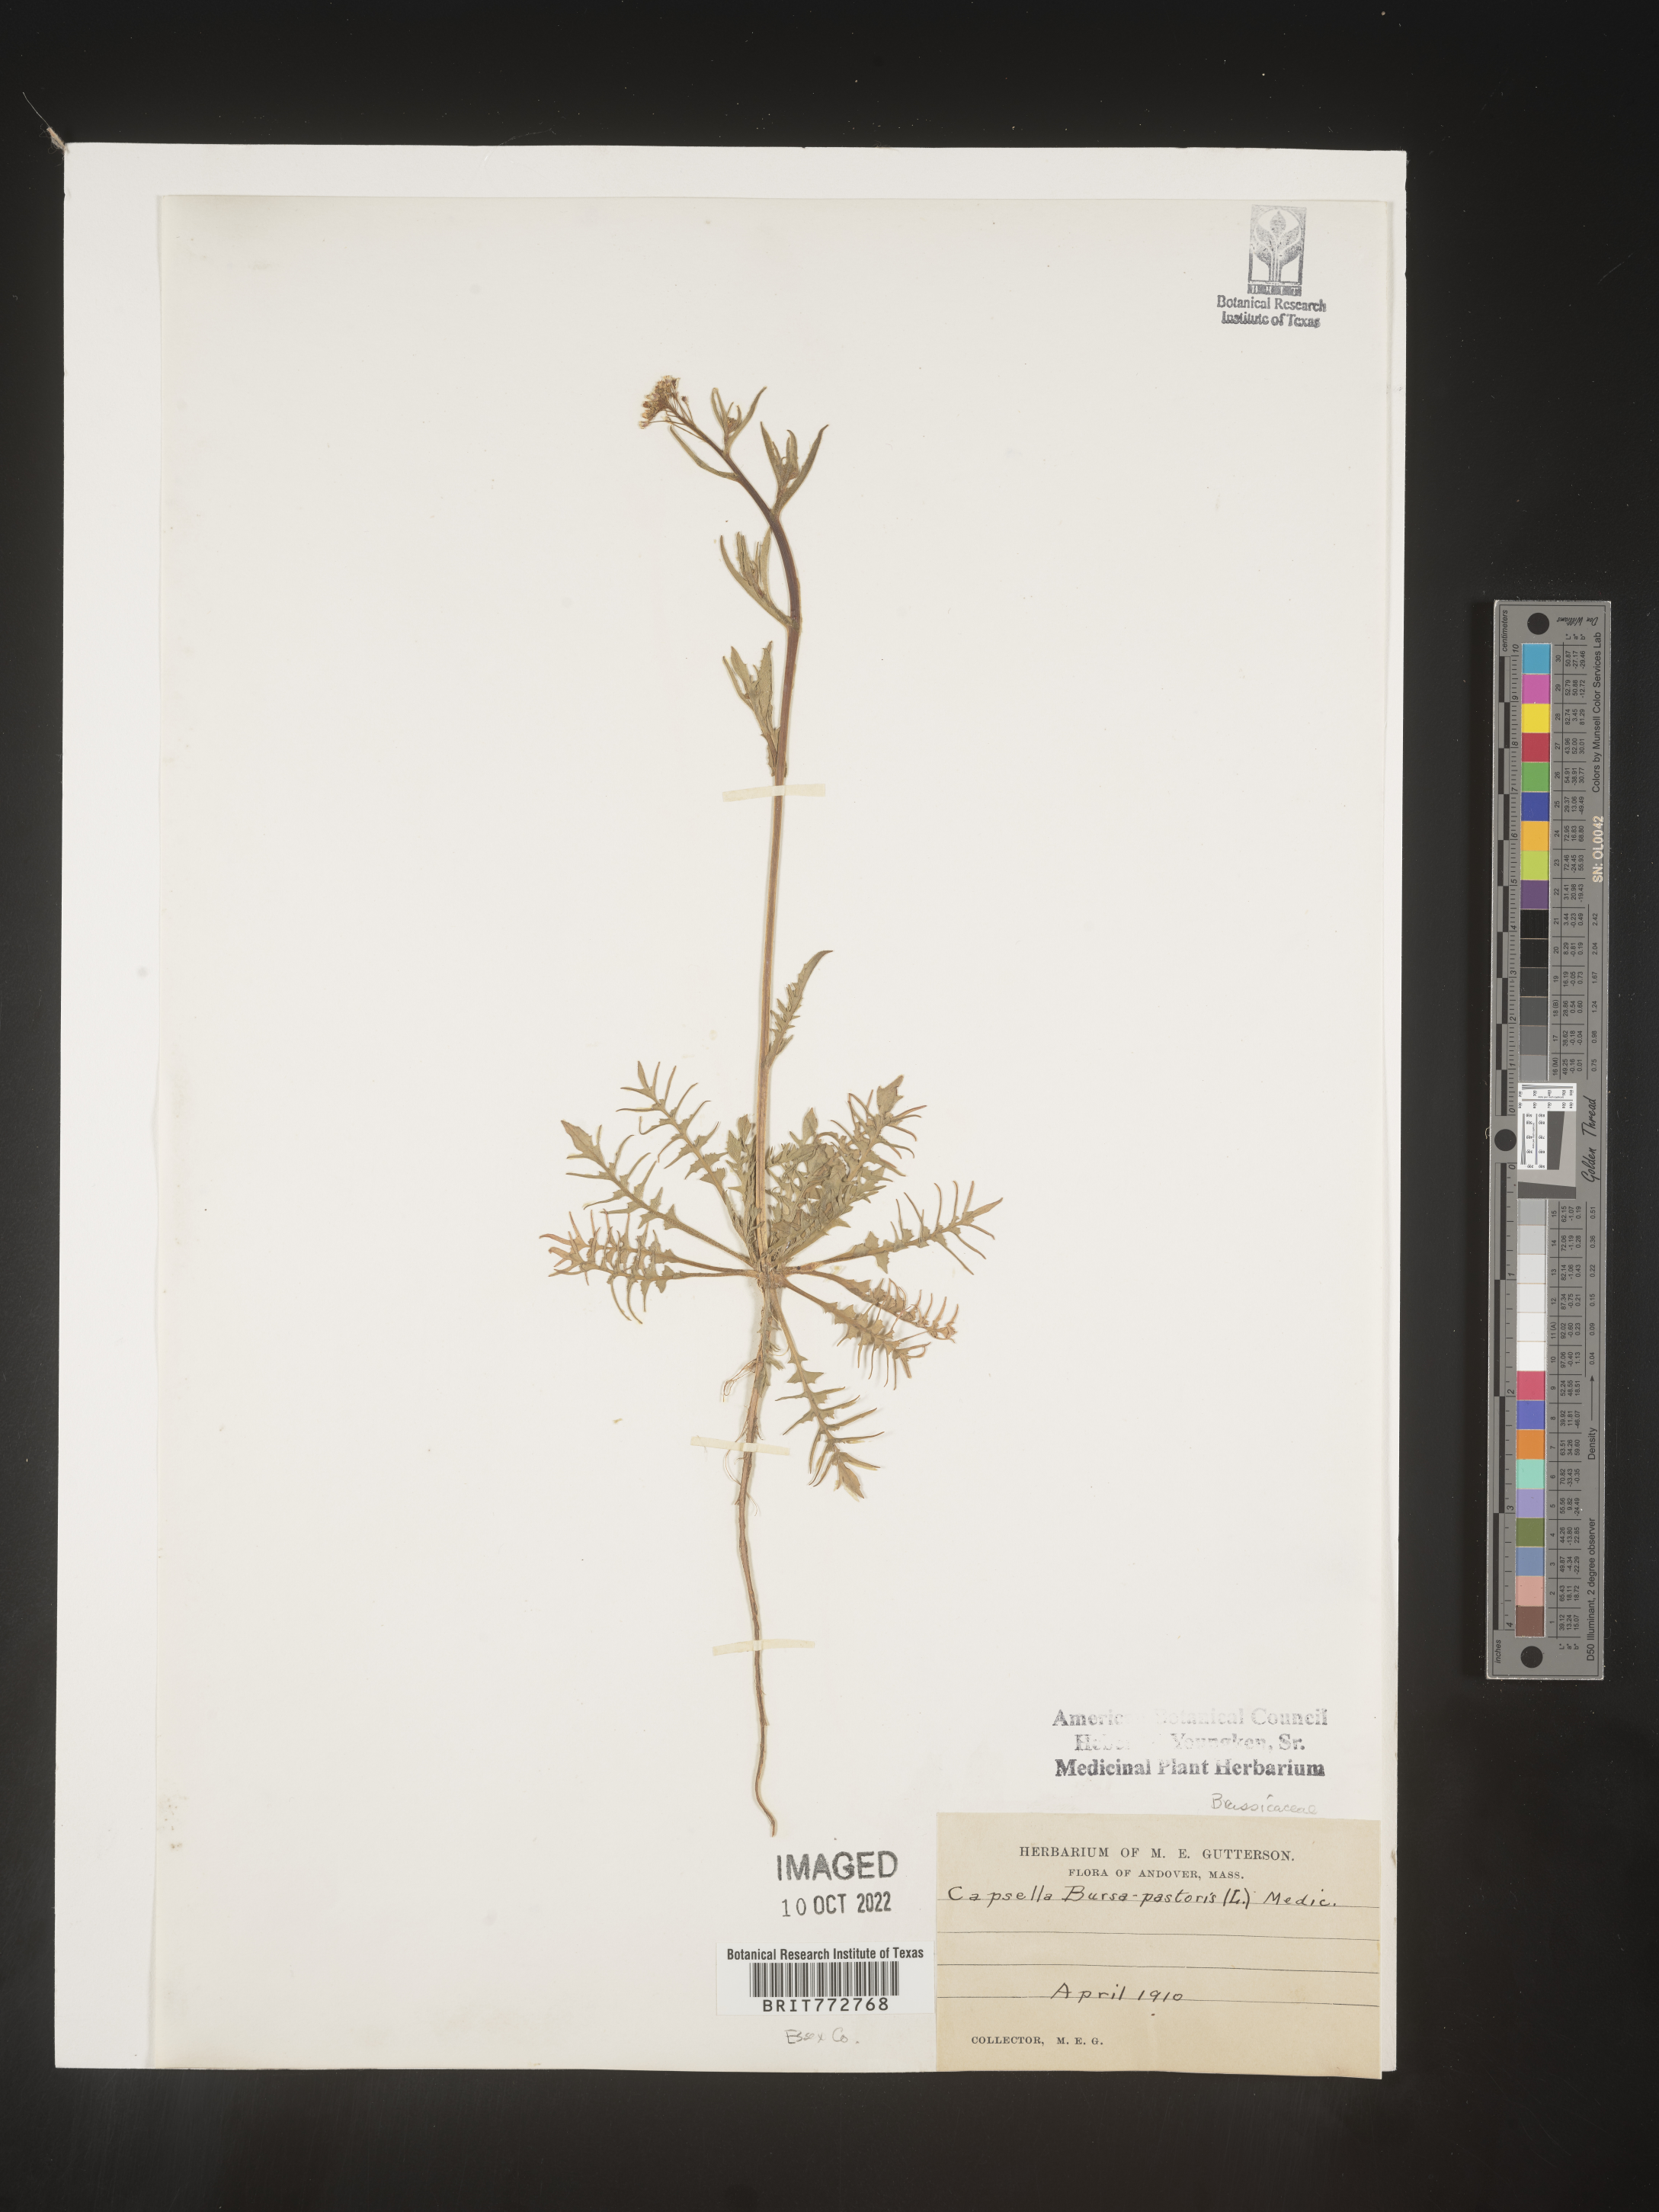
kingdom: Plantae
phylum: Tracheophyta
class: Magnoliopsida
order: Brassicales
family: Brassicaceae
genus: Capsella
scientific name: Capsella bursa-pastoris
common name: Shepherd's purse
